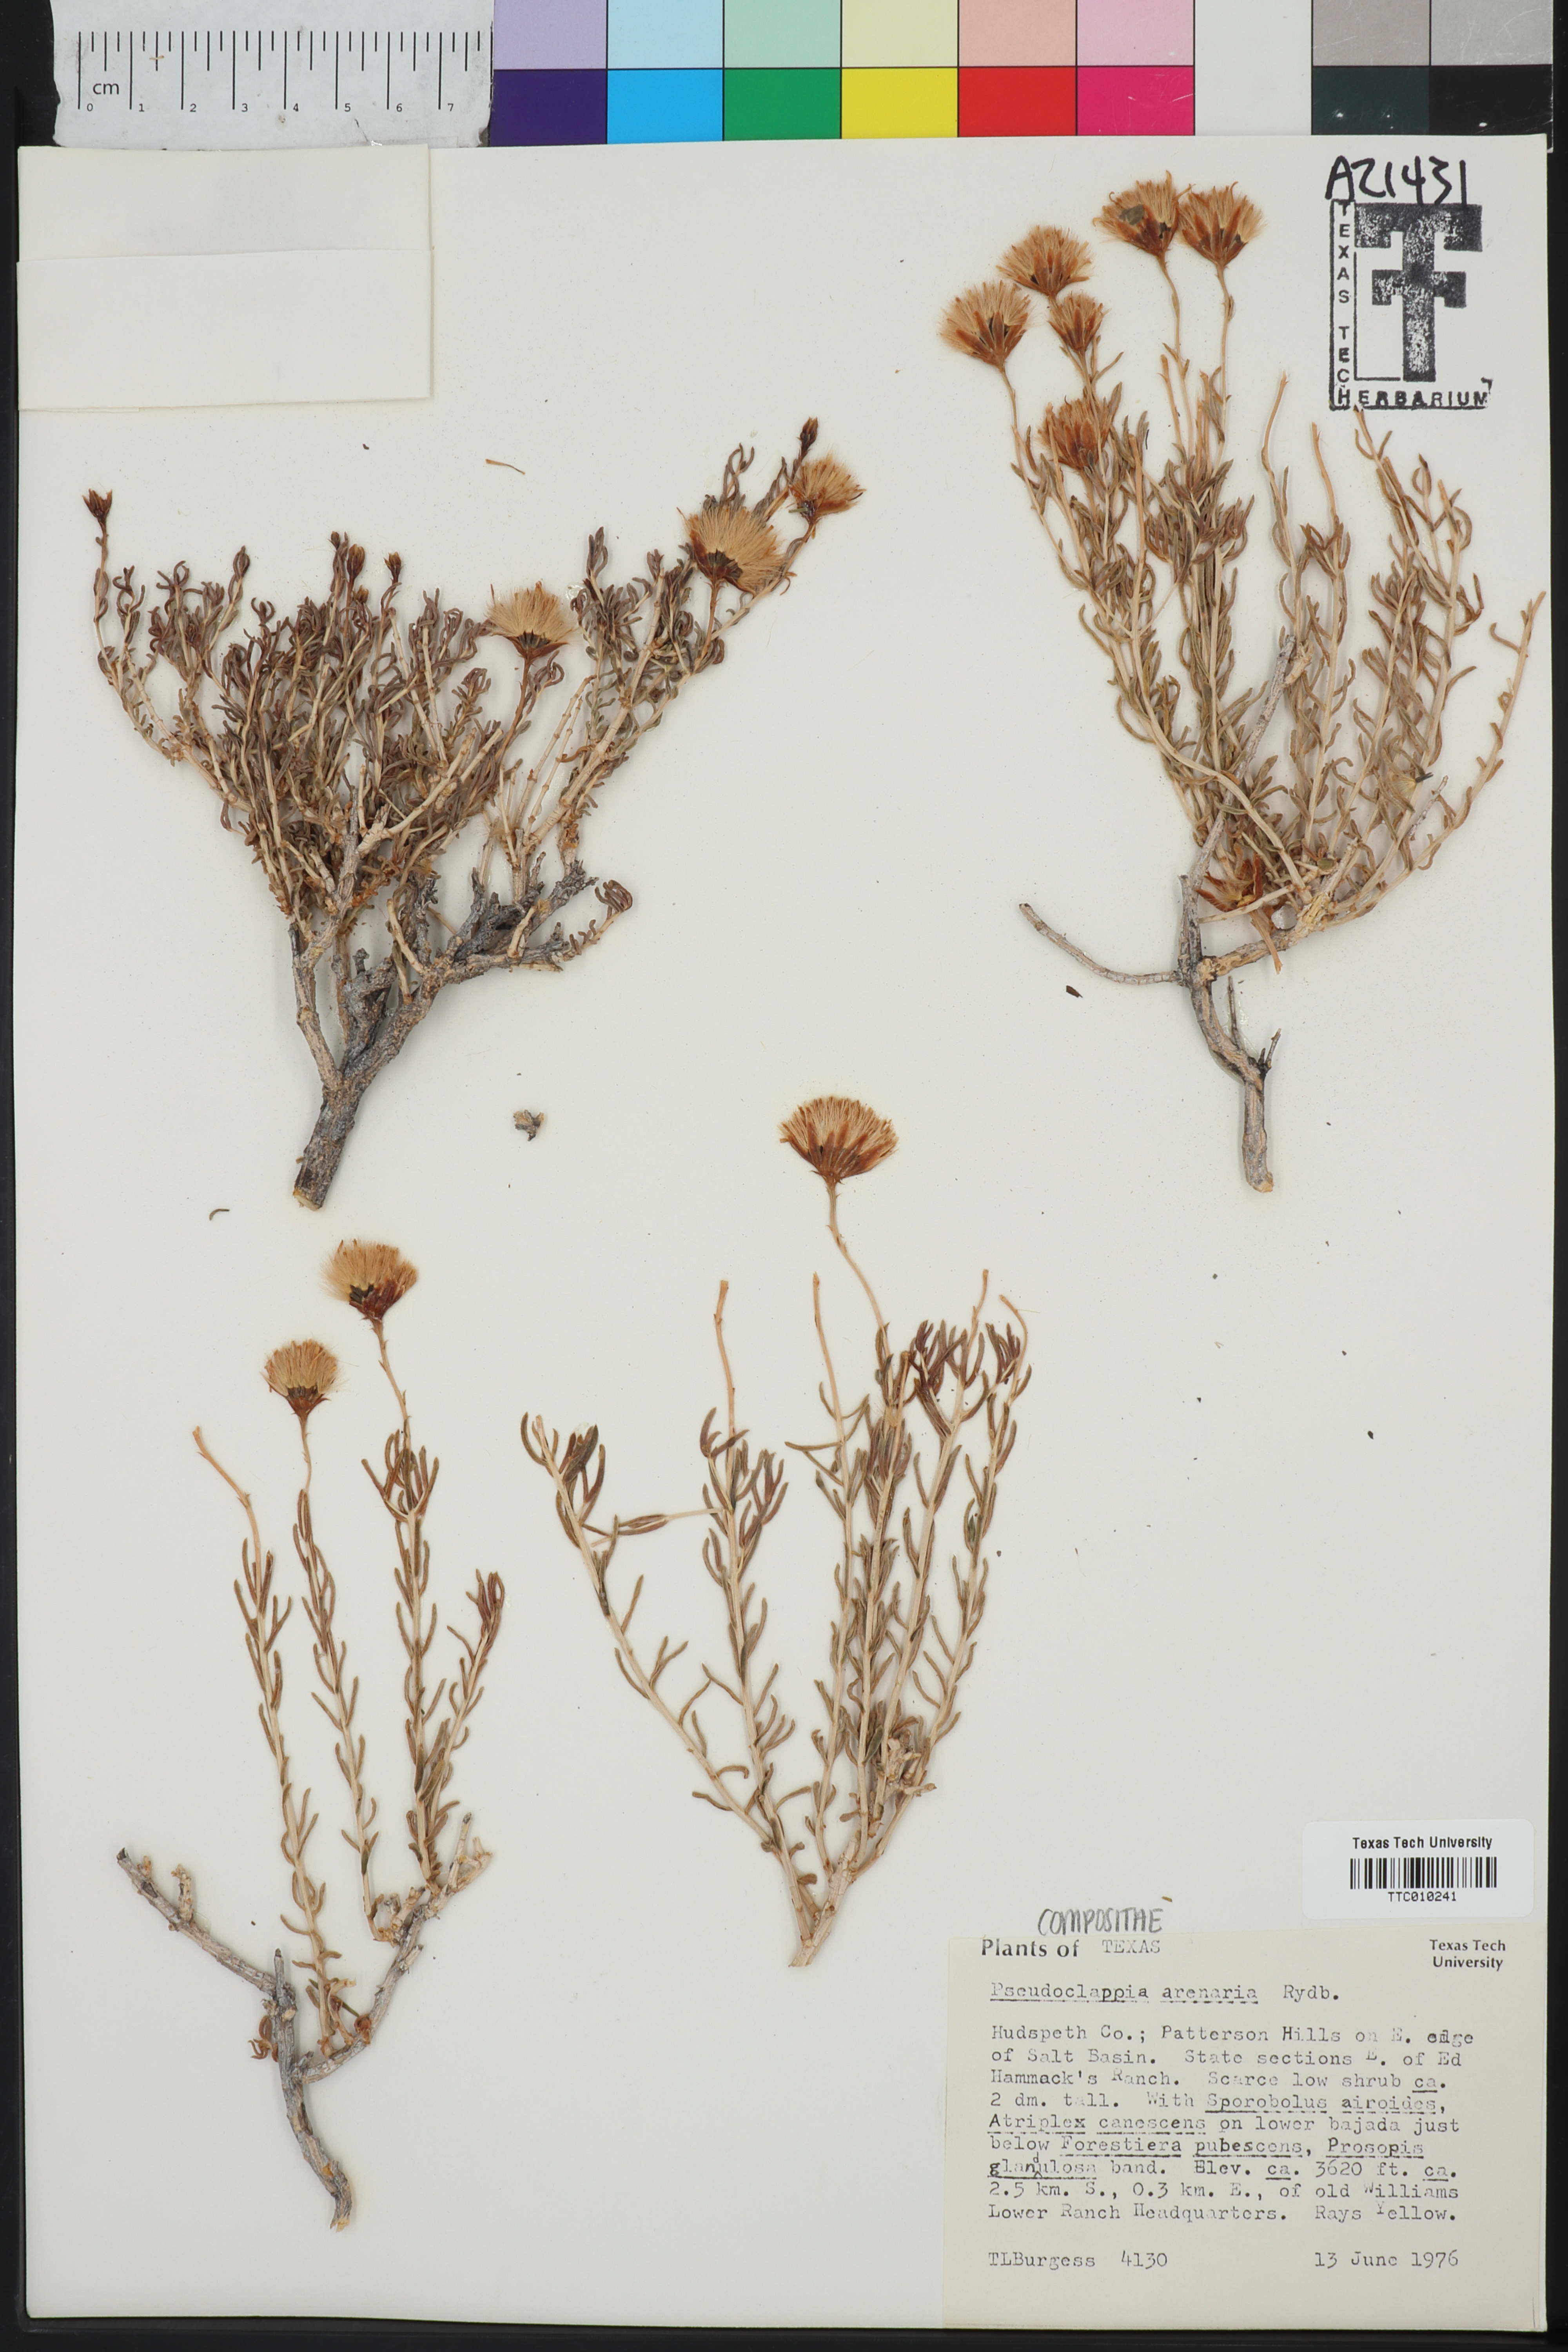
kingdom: Plantae
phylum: Tracheophyta
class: Magnoliopsida
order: Asterales
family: Asteraceae
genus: Pseudoclappia
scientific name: Pseudoclappia arenaria
